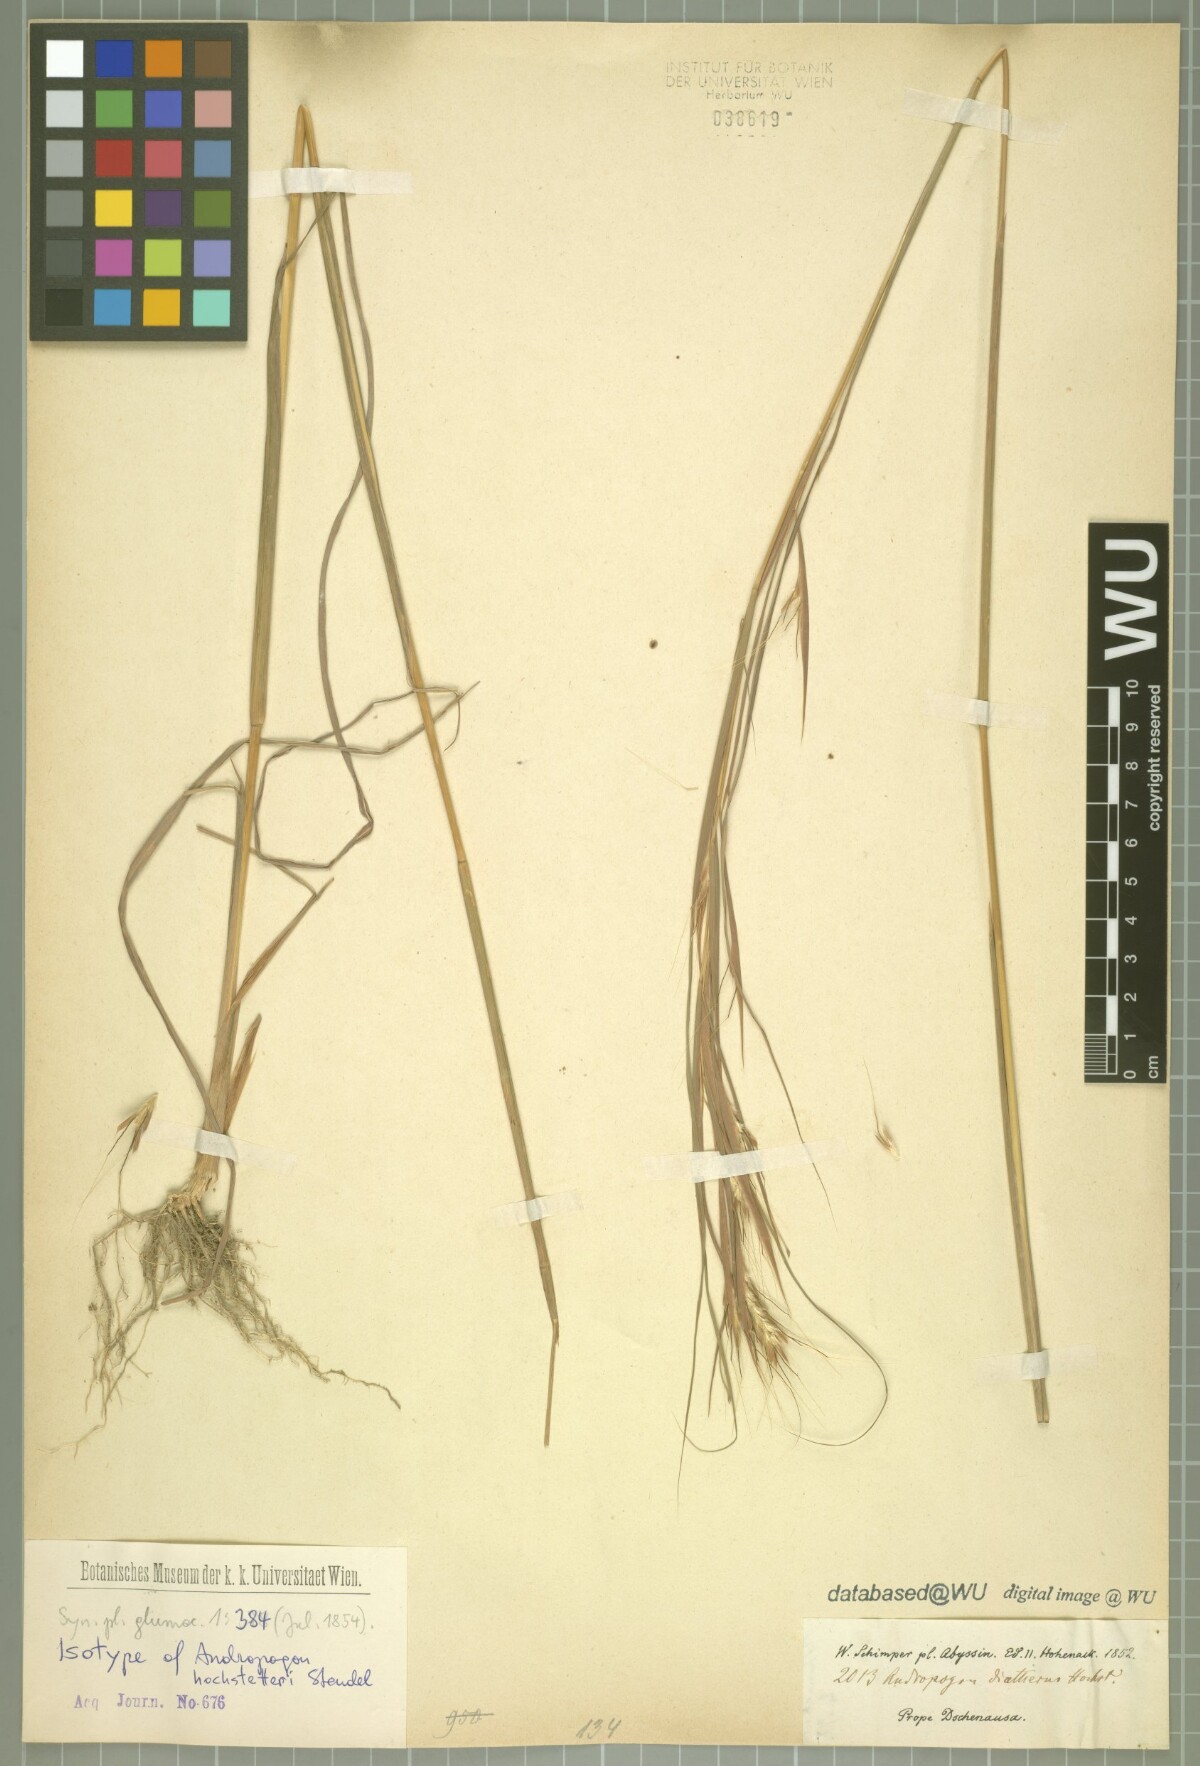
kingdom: Plantae
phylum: Tracheophyta
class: Liliopsida
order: Poales
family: Poaceae
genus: Diectomis
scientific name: Diectomis fastigiata
